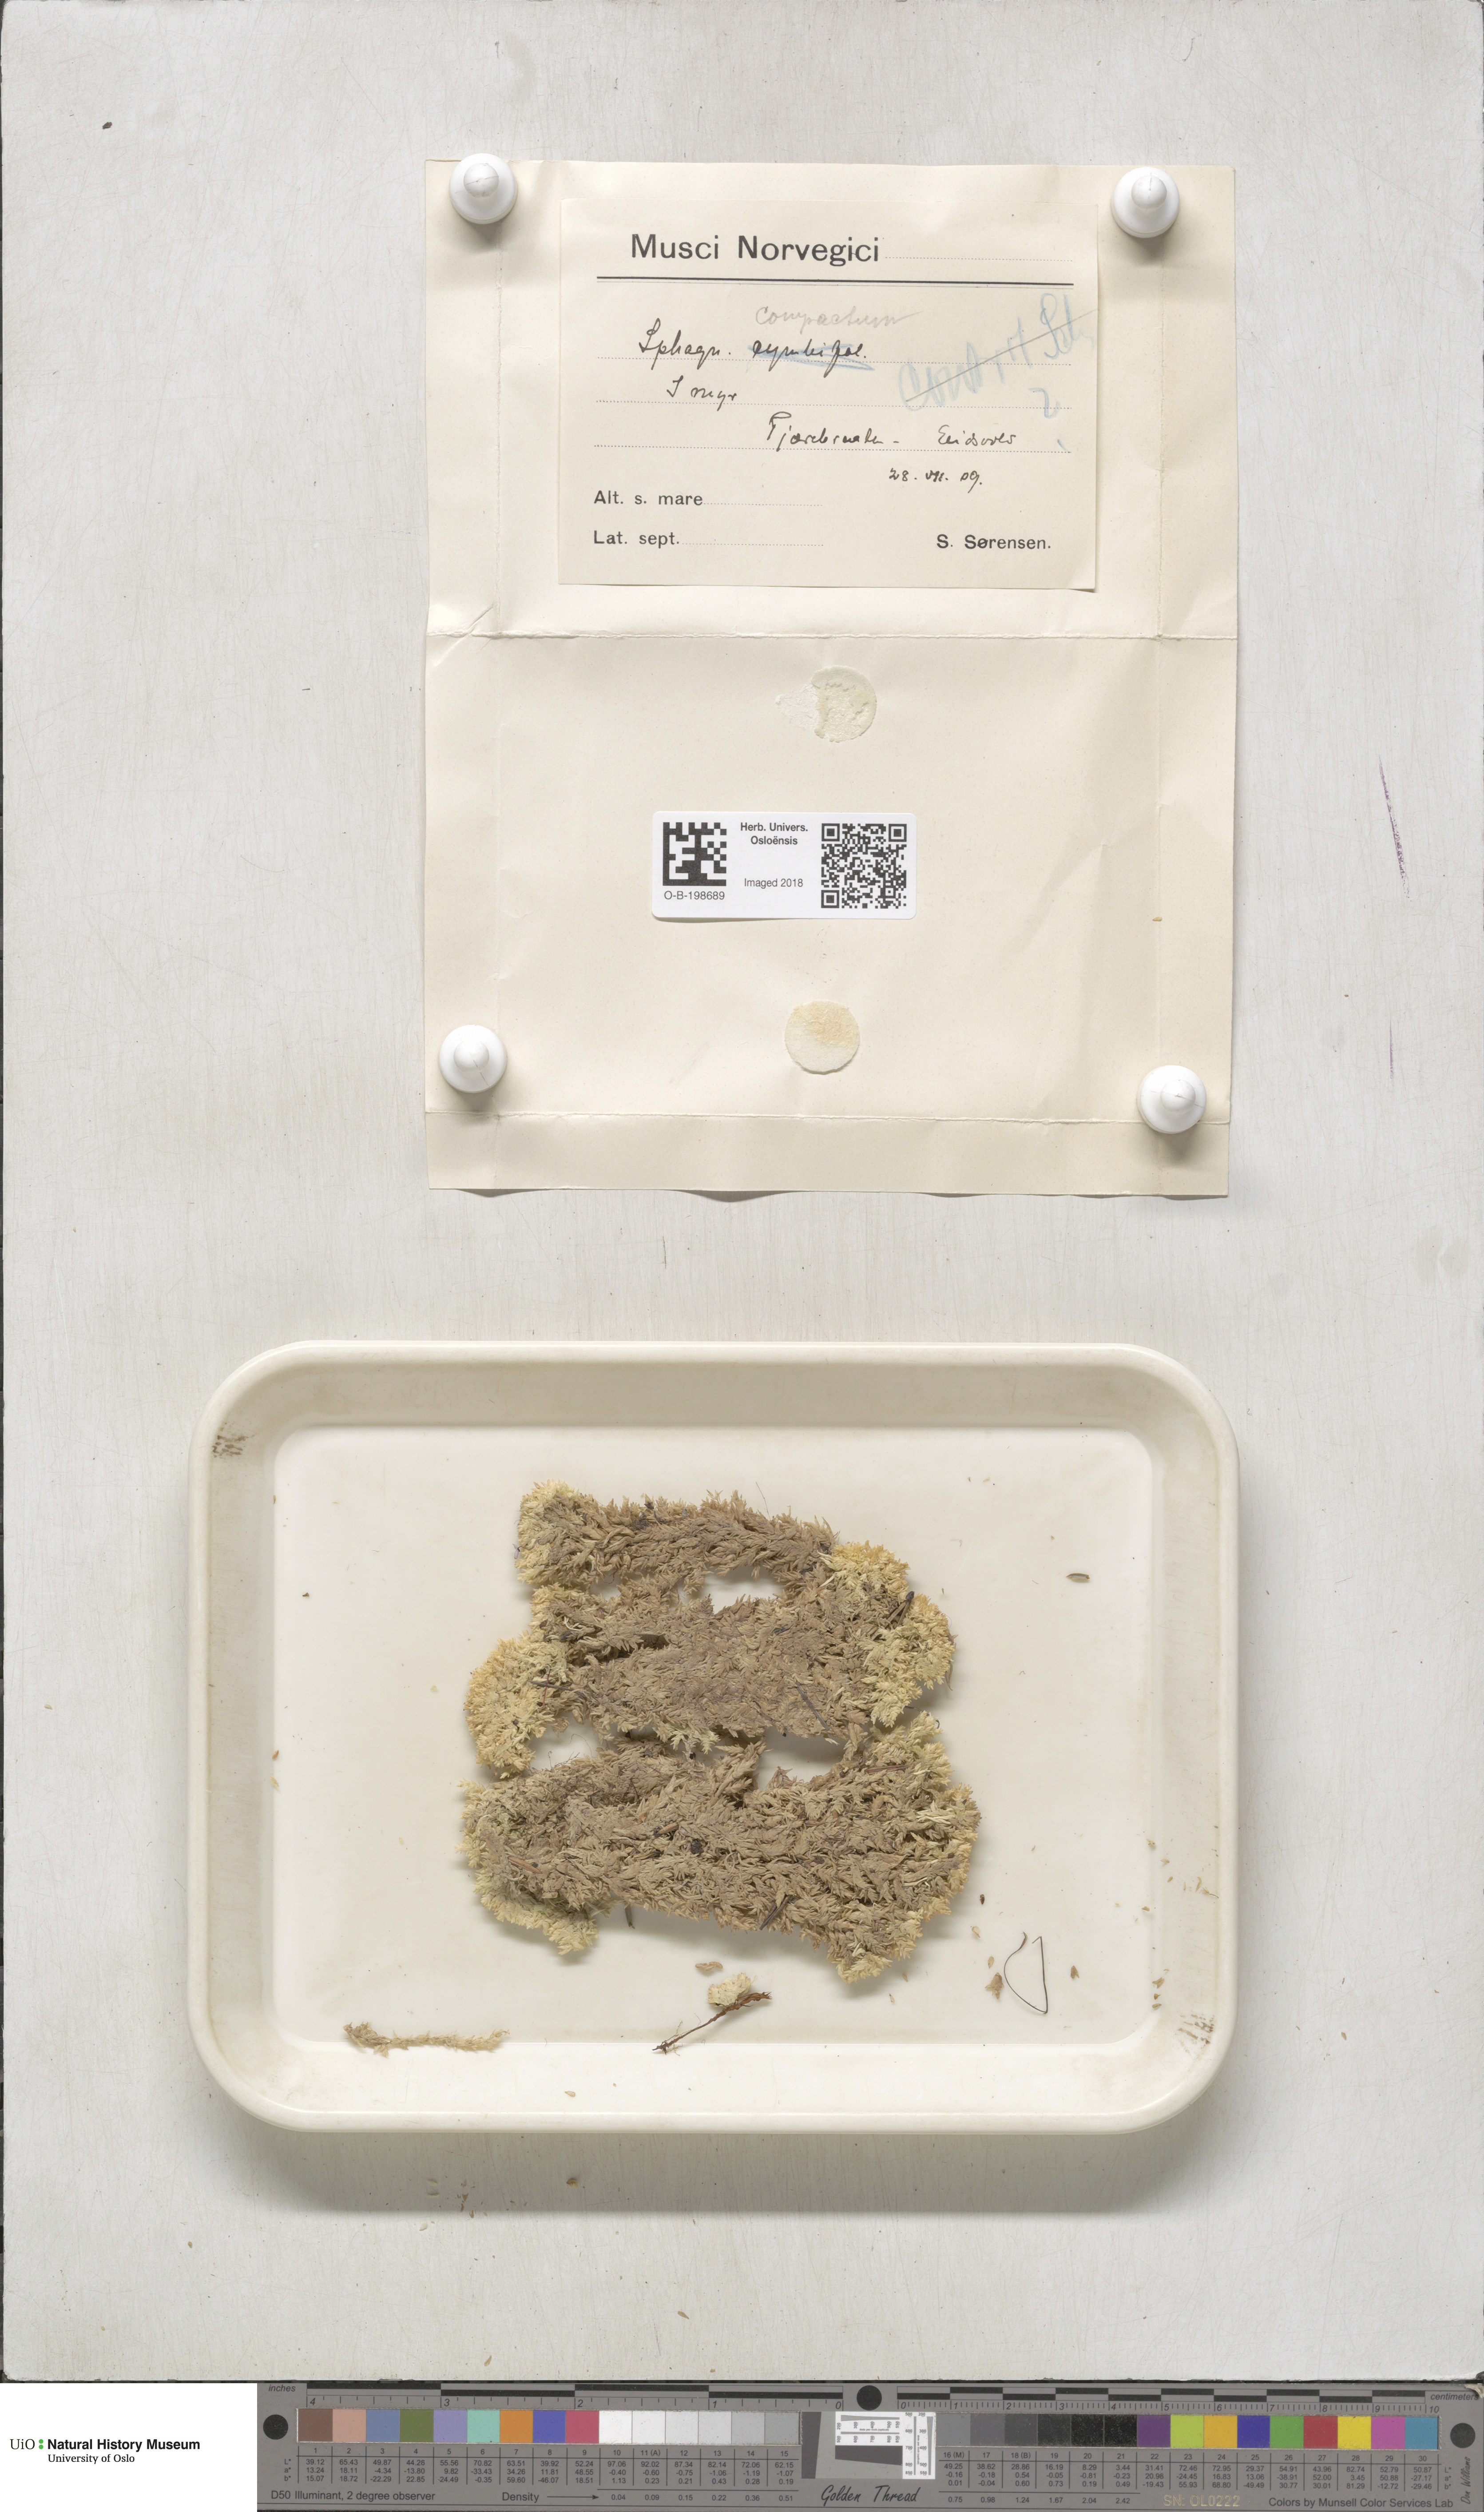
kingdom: Plantae
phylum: Bryophyta
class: Sphagnopsida
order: Sphagnales
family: Sphagnaceae
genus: Sphagnum
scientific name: Sphagnum compactum
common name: Compact peat moss
